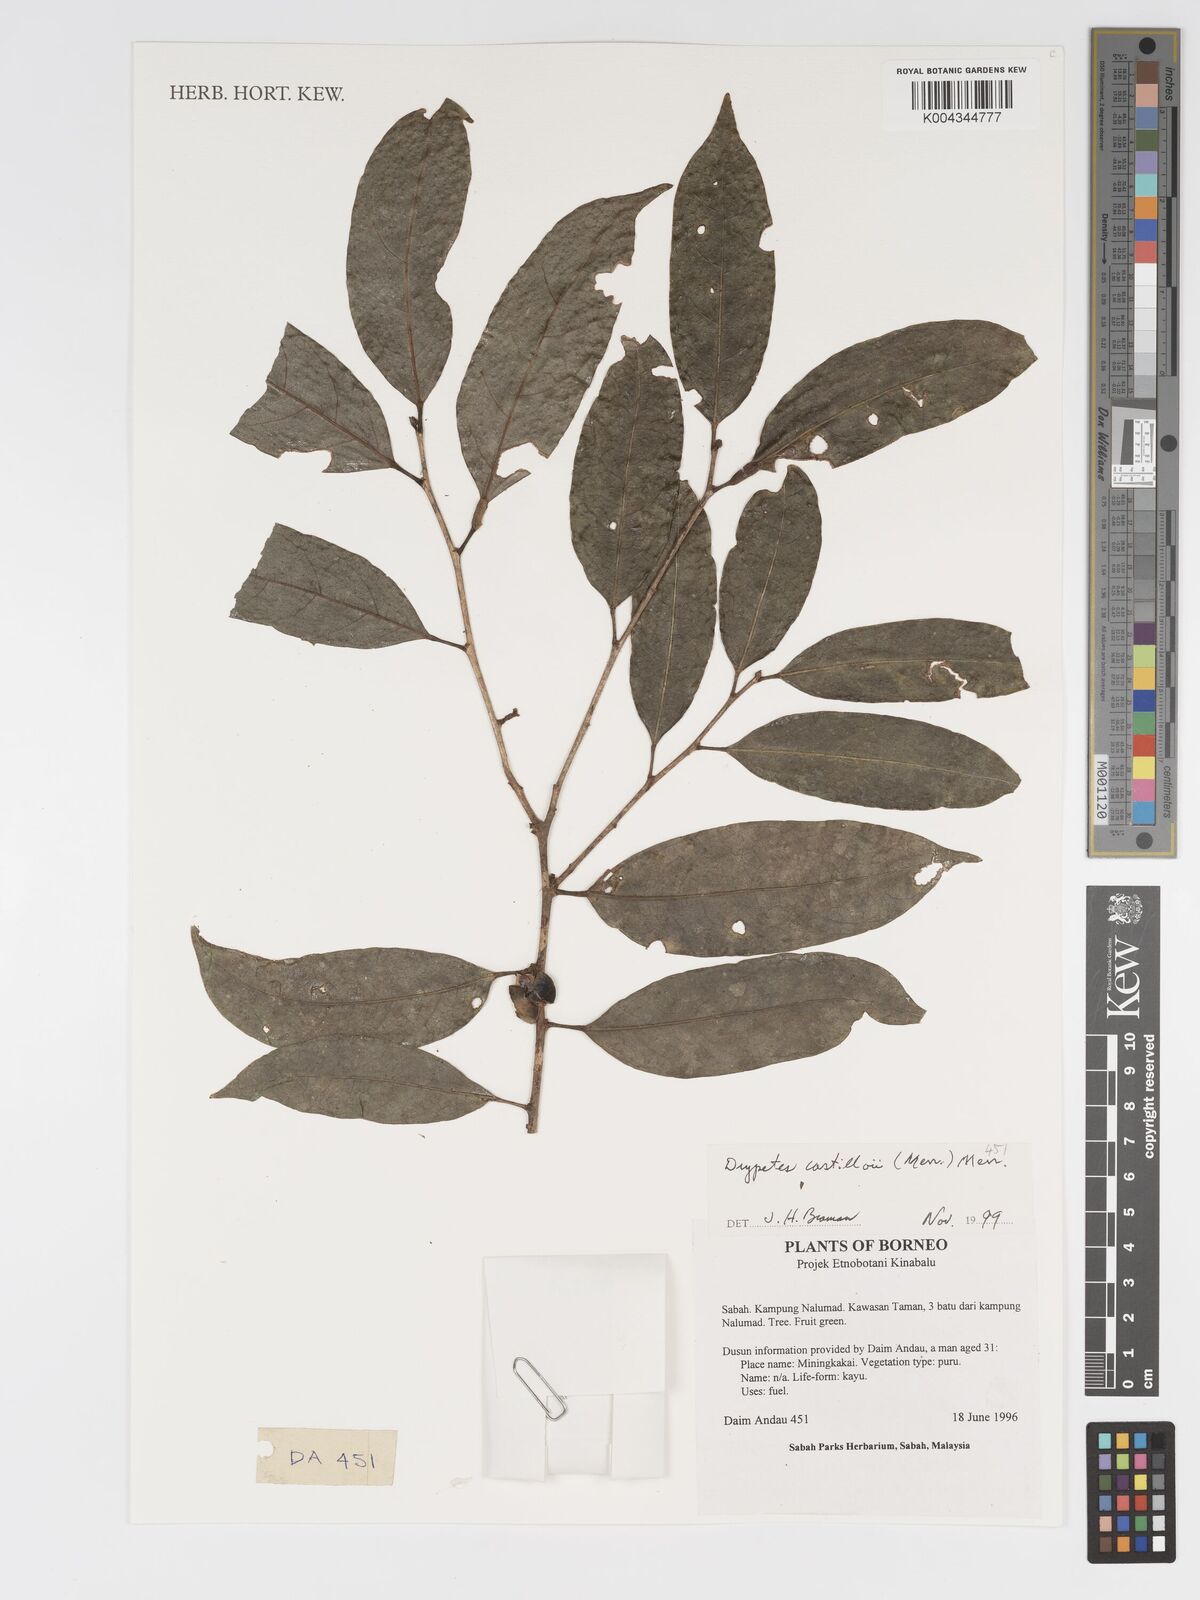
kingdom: Plantae
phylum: Tracheophyta
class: Magnoliopsida
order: Malpighiales
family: Putranjivaceae
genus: Drypetes
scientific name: Drypetes castilloi
